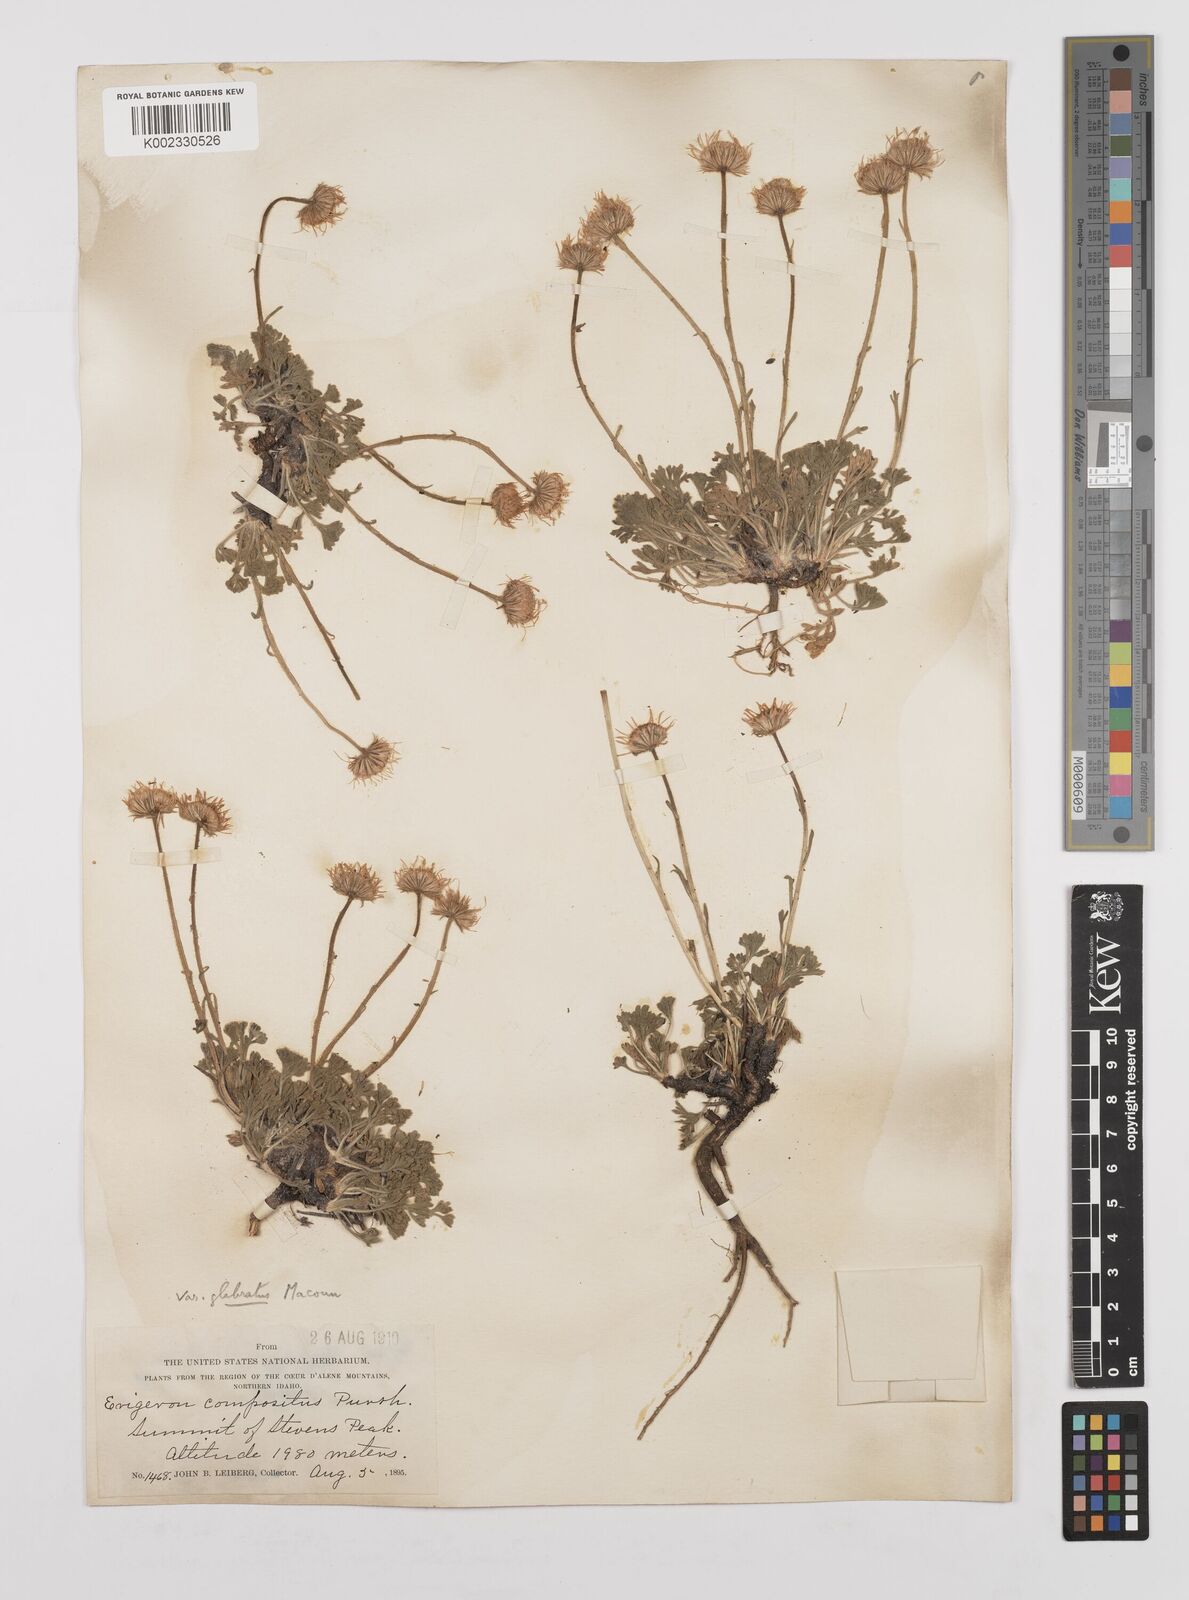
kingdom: Plantae
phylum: Tracheophyta
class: Magnoliopsida
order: Asterales
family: Asteraceae
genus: Erigeron
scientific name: Erigeron compositus
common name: Dwarf mountain fleabane
